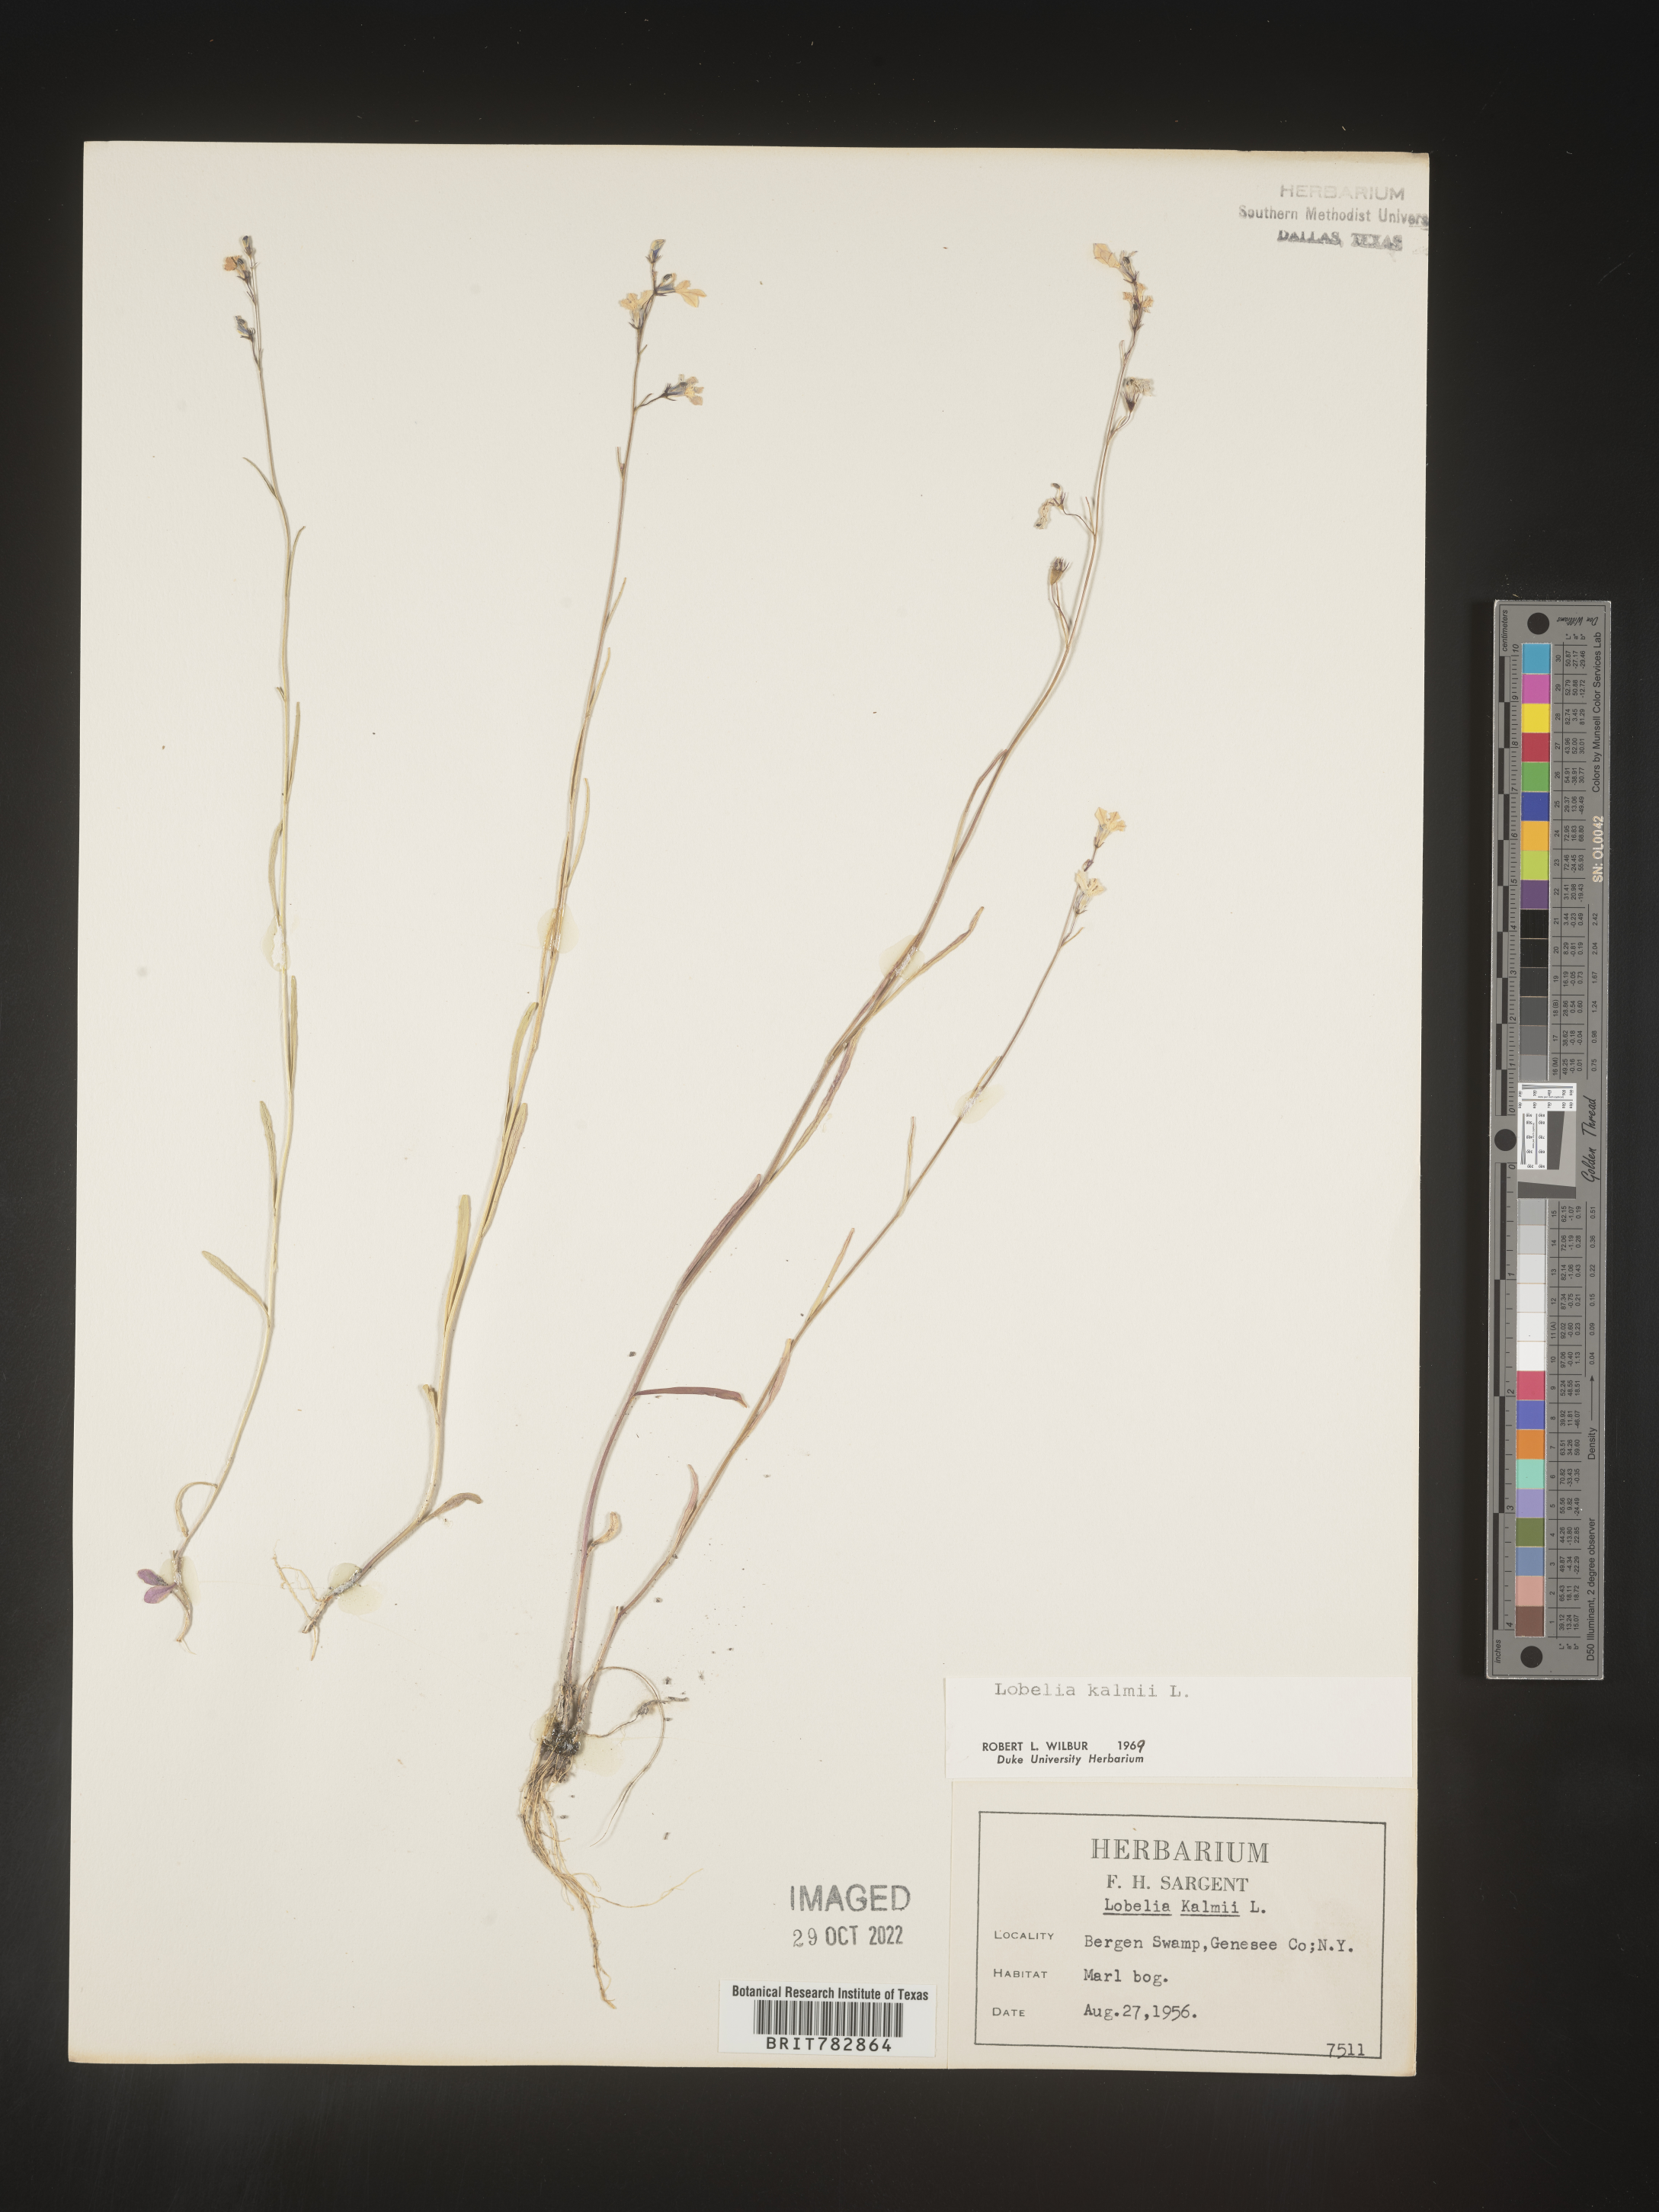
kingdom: Plantae
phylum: Tracheophyta
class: Magnoliopsida
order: Asterales
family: Campanulaceae
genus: Lobelia
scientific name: Lobelia
